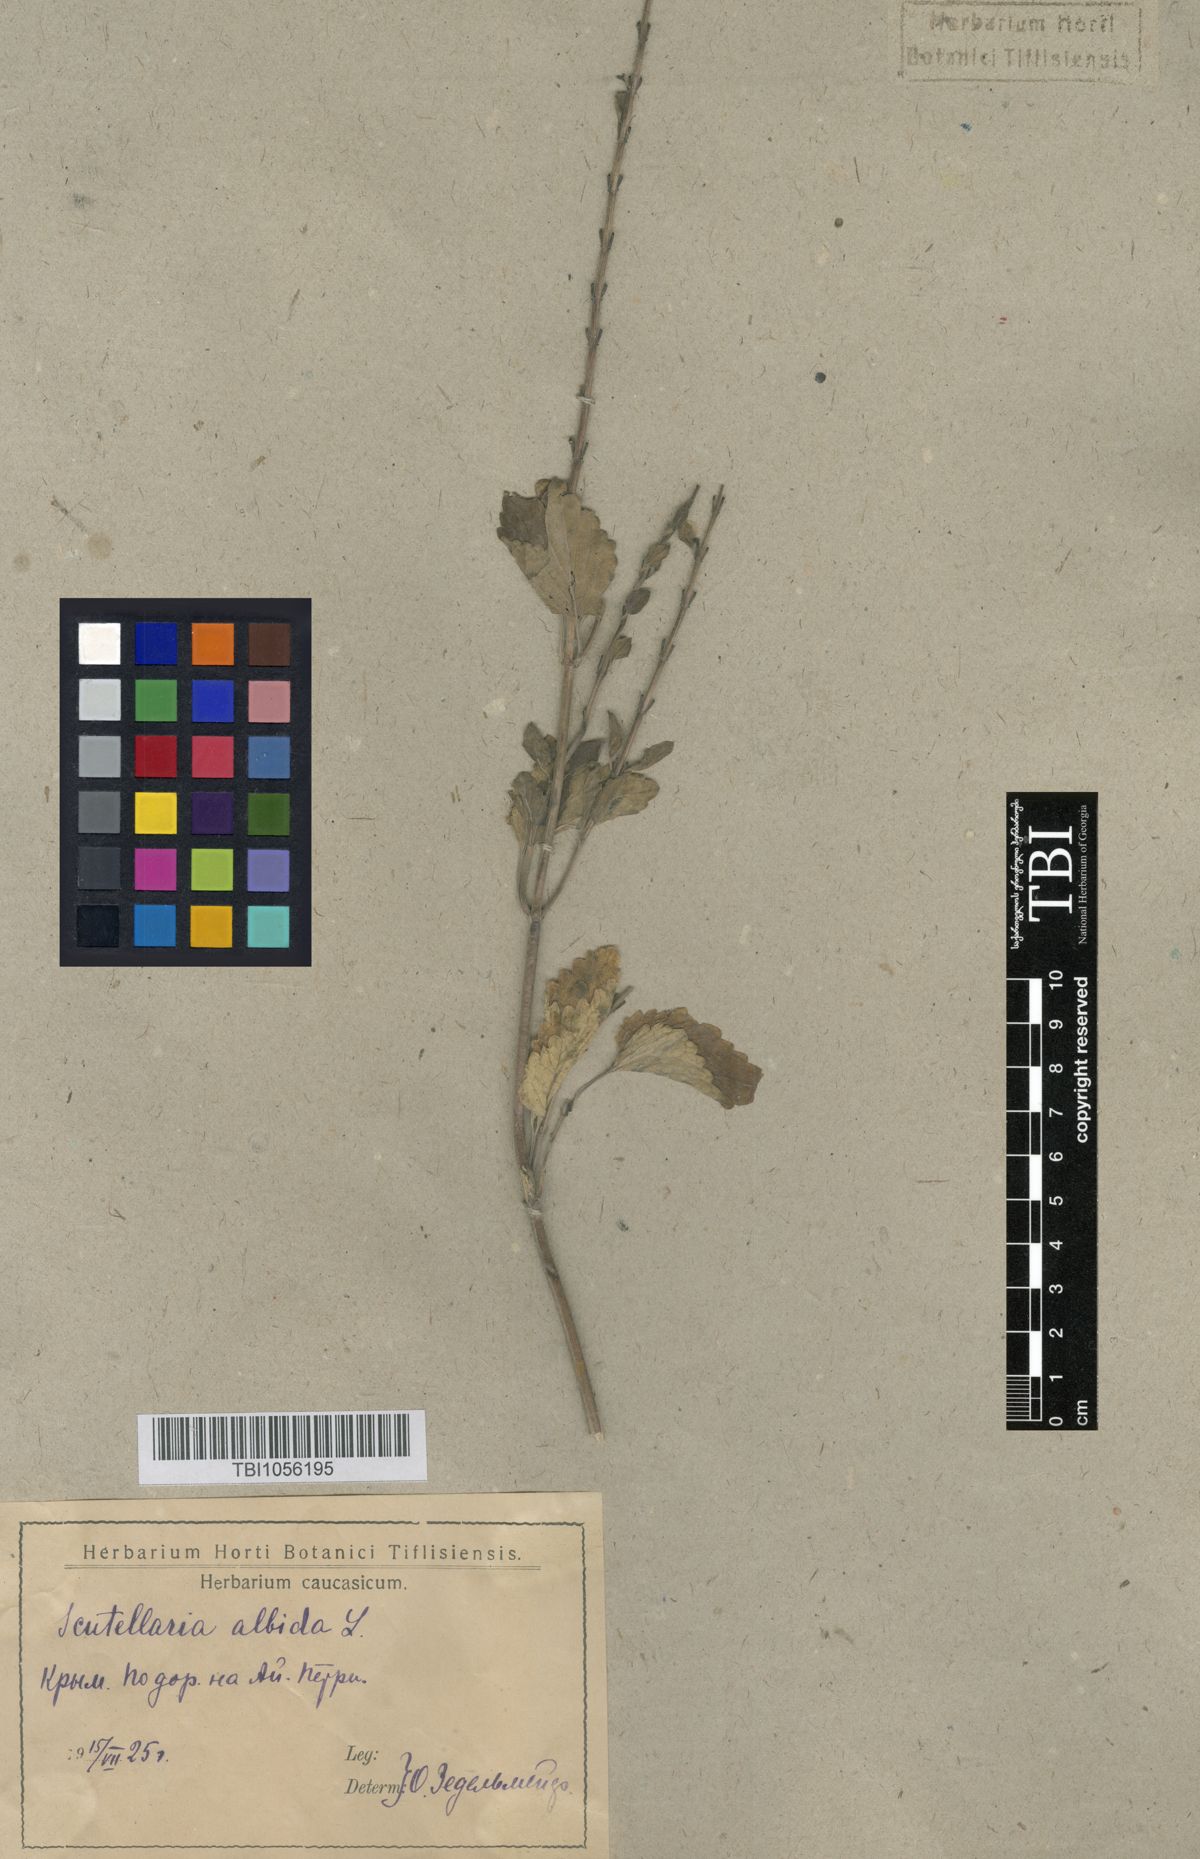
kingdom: Plantae
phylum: Tracheophyta
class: Magnoliopsida
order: Lamiales
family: Lamiaceae
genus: Scutellaria
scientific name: Scutellaria albida
